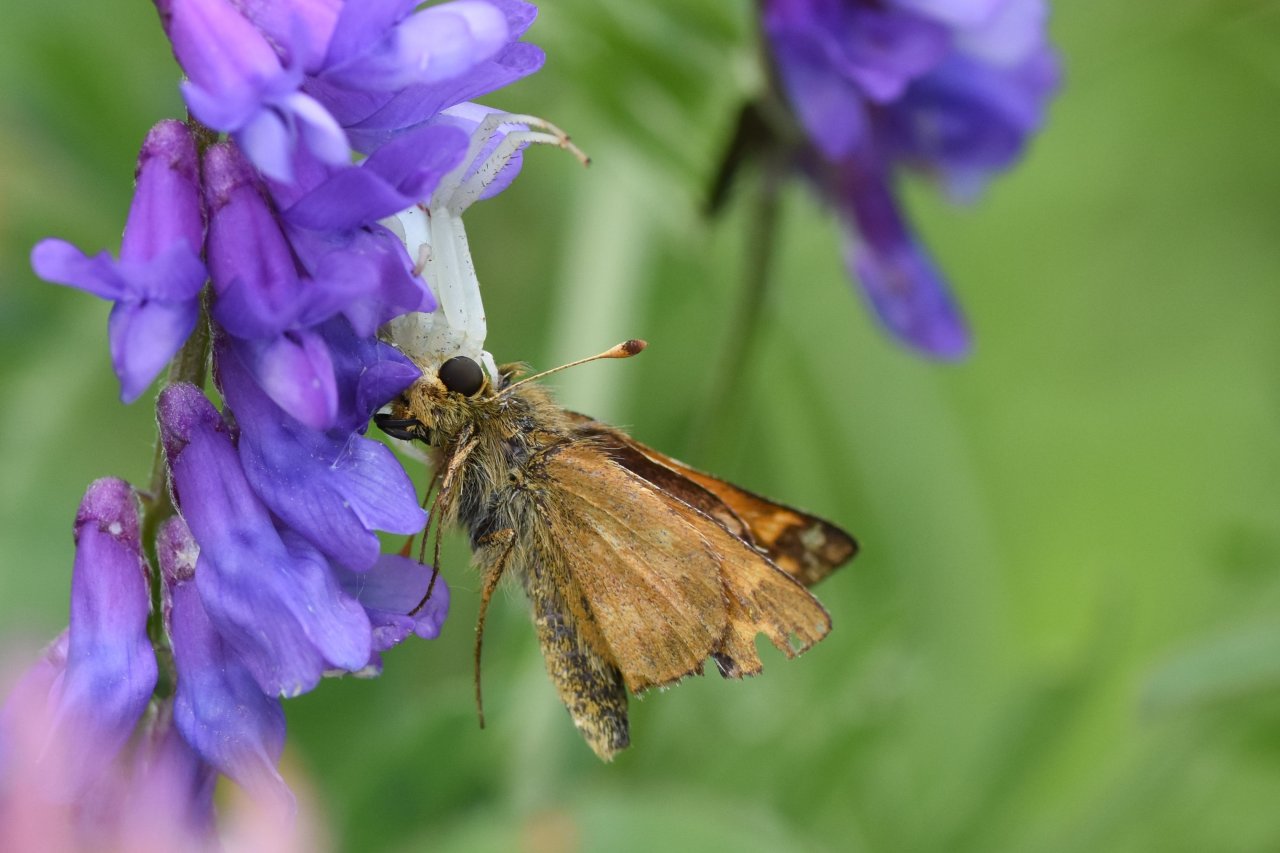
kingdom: Animalia
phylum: Arthropoda
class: Insecta
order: Lepidoptera
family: Hesperiidae
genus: Hesperia
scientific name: Hesperia sassacus
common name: Sassacus Skipper
